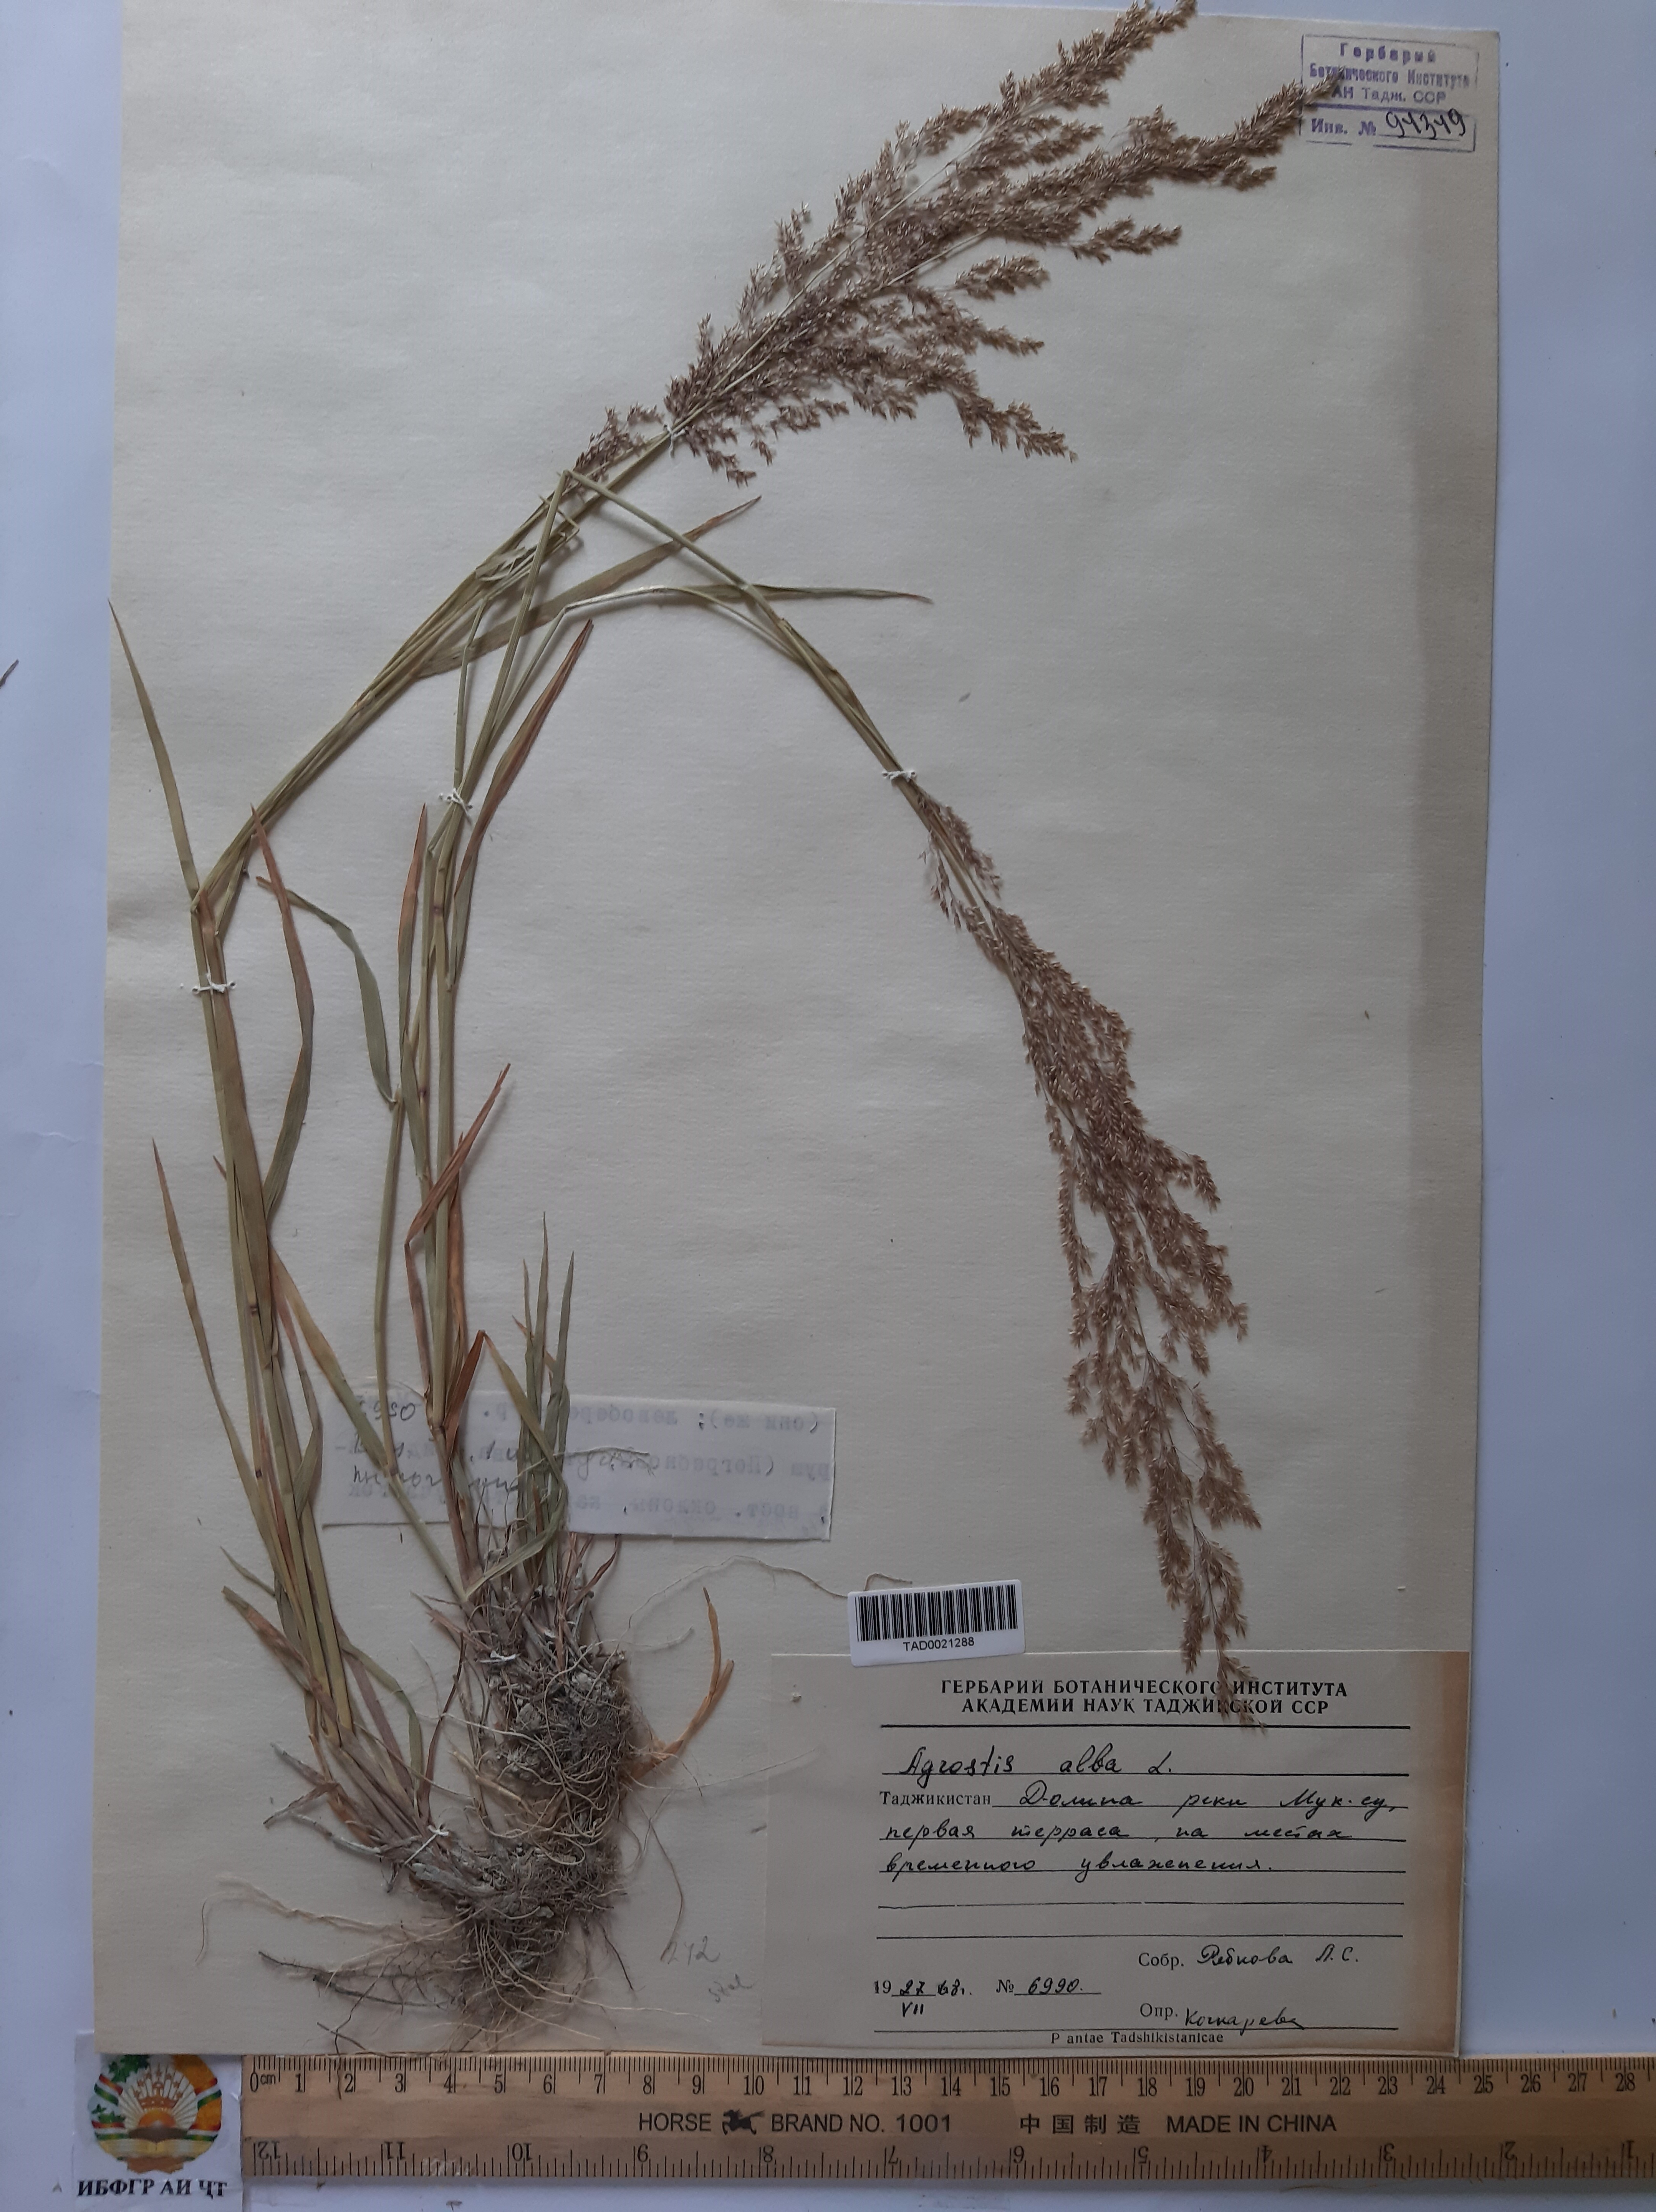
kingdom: Plantae
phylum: Tracheophyta
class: Liliopsida
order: Poales
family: Poaceae
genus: Poa
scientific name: Poa nemoralis
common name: Wood bluegrass
